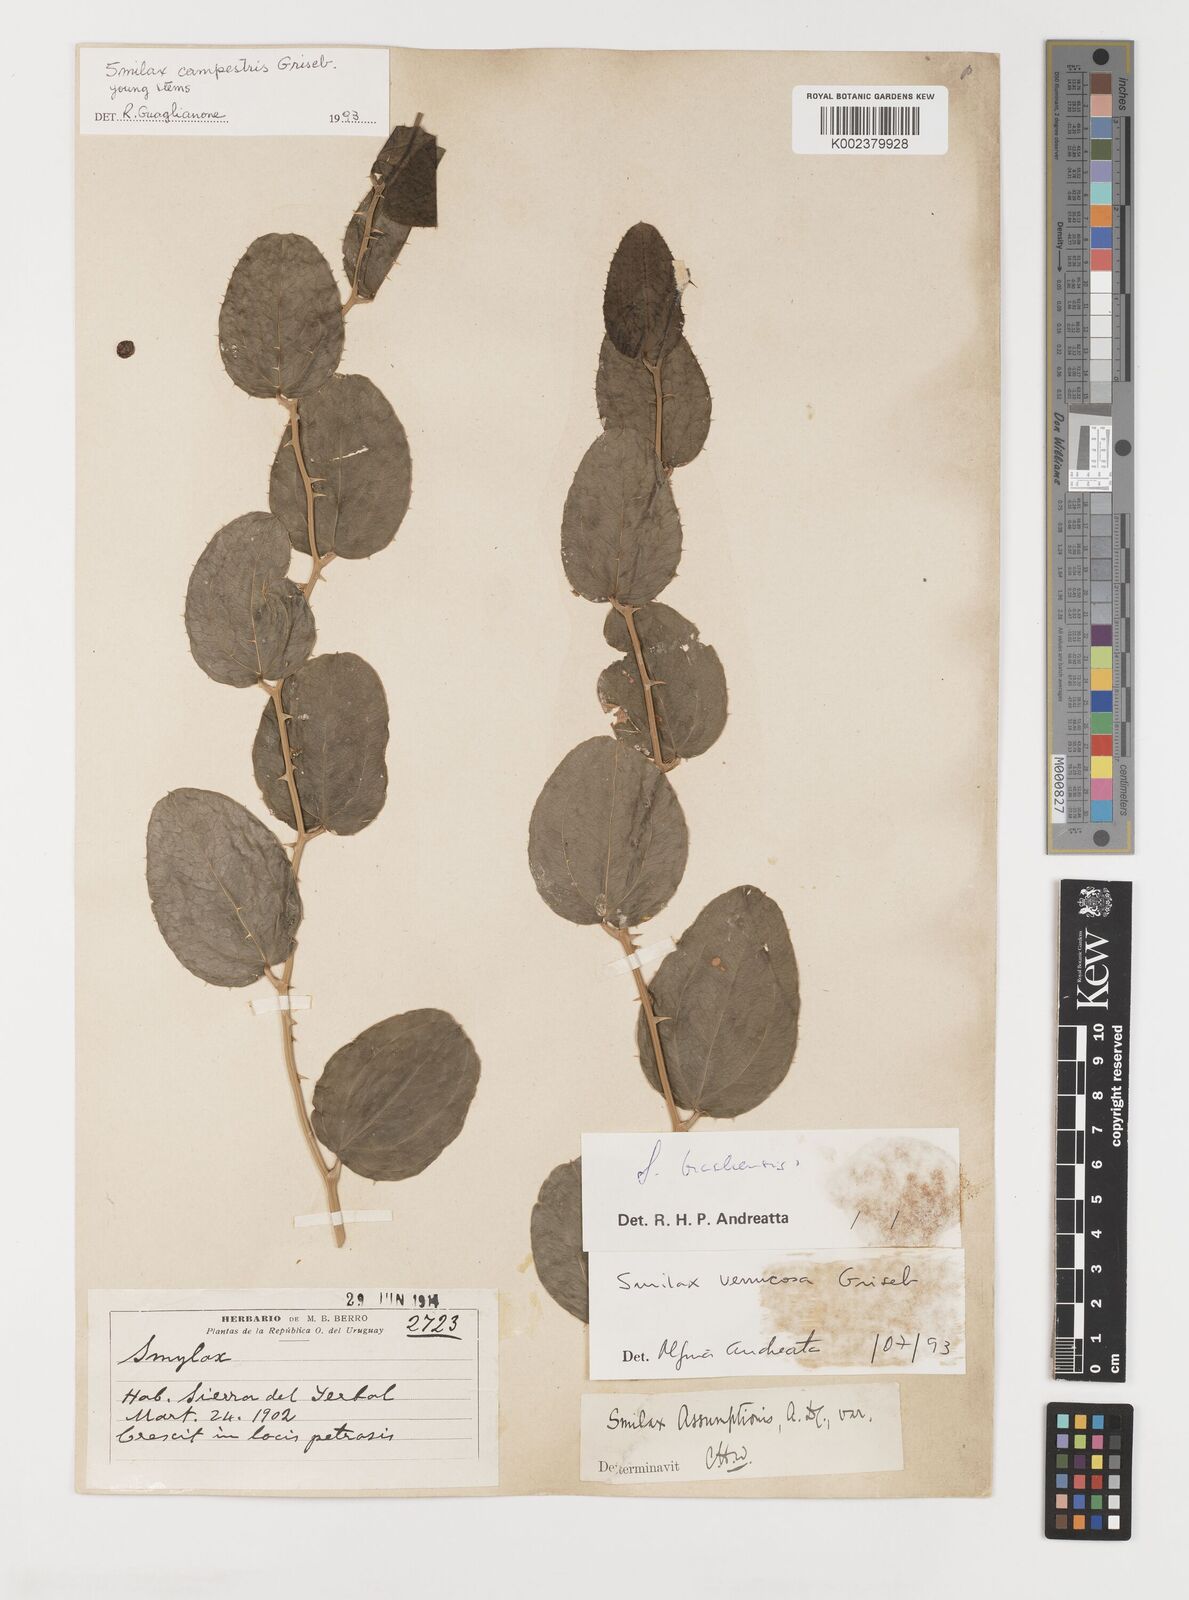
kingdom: Plantae
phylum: Tracheophyta
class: Liliopsida
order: Liliales
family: Smilacaceae
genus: Smilax
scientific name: Smilax verrucosa
